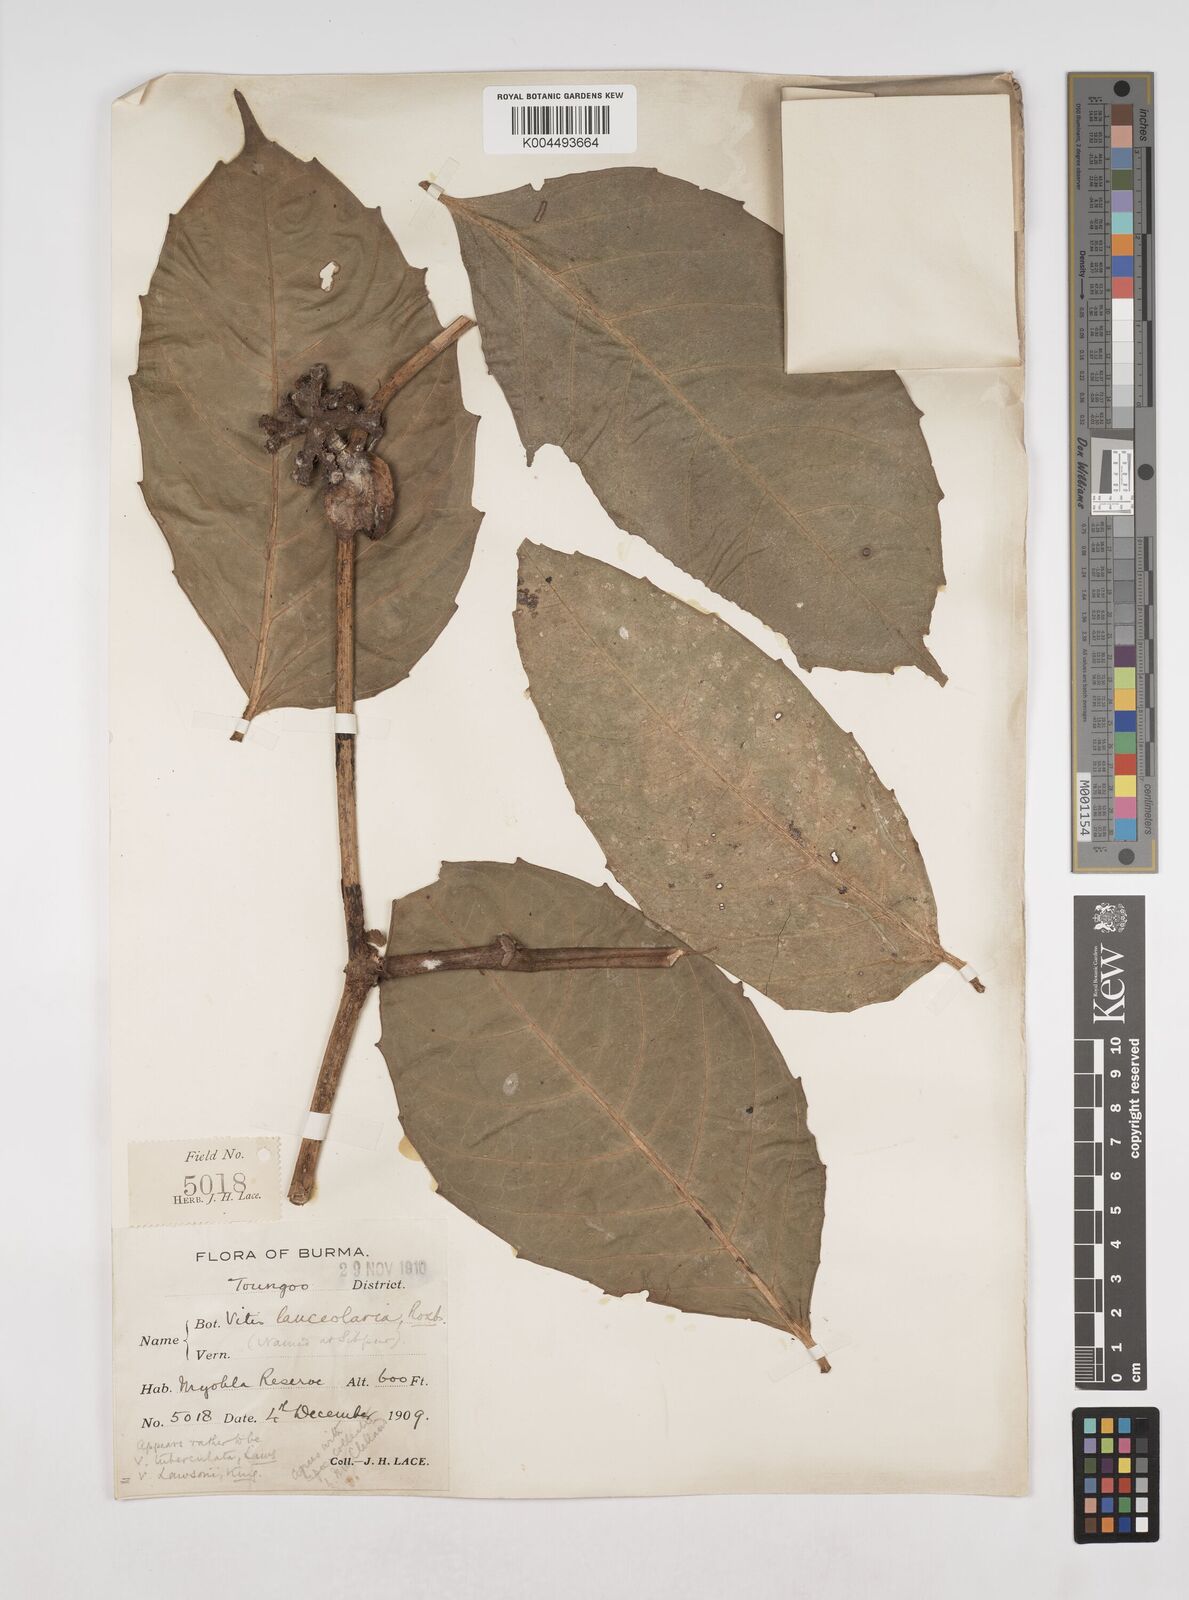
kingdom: Plantae
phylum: Tracheophyta
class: Magnoliopsida
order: Vitales
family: Vitaceae
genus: Tetrastigma
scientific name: Tetrastigma
